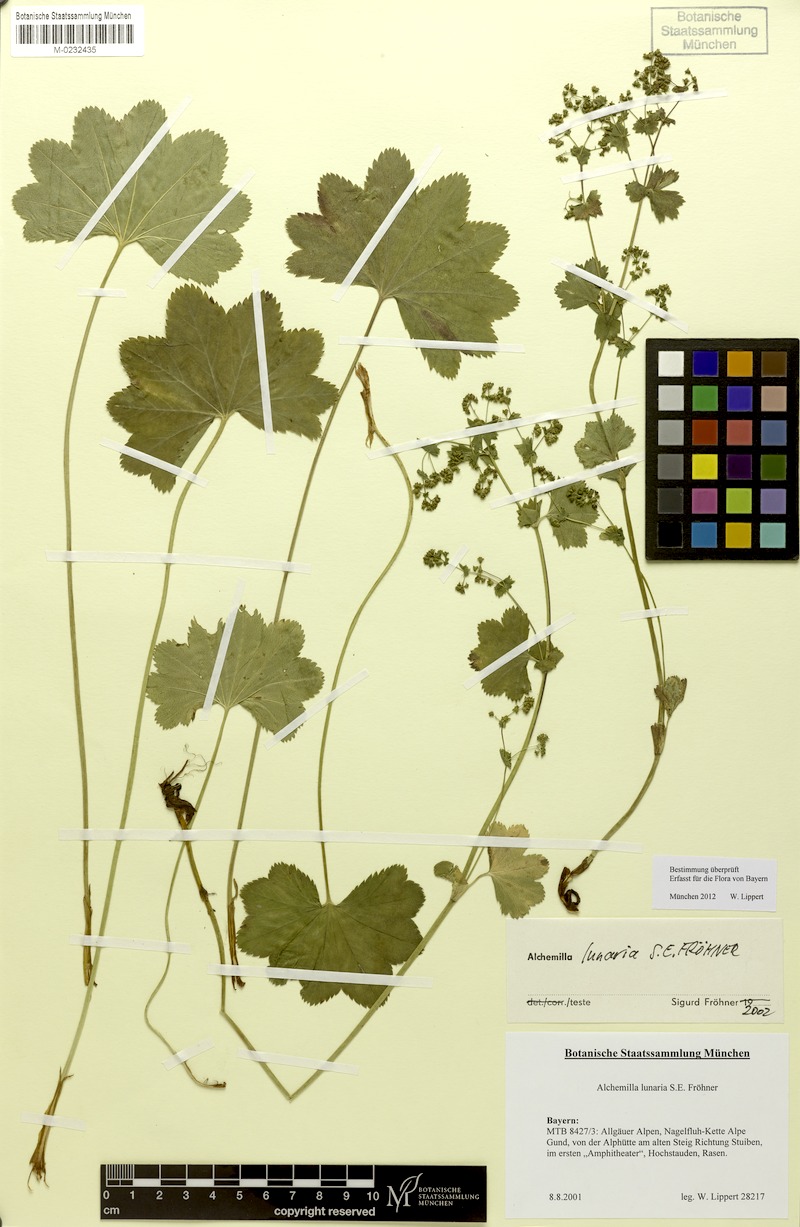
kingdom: Plantae
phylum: Tracheophyta
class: Magnoliopsida
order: Rosales
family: Rosaceae
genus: Alchemilla
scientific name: Alchemilla lunaria
